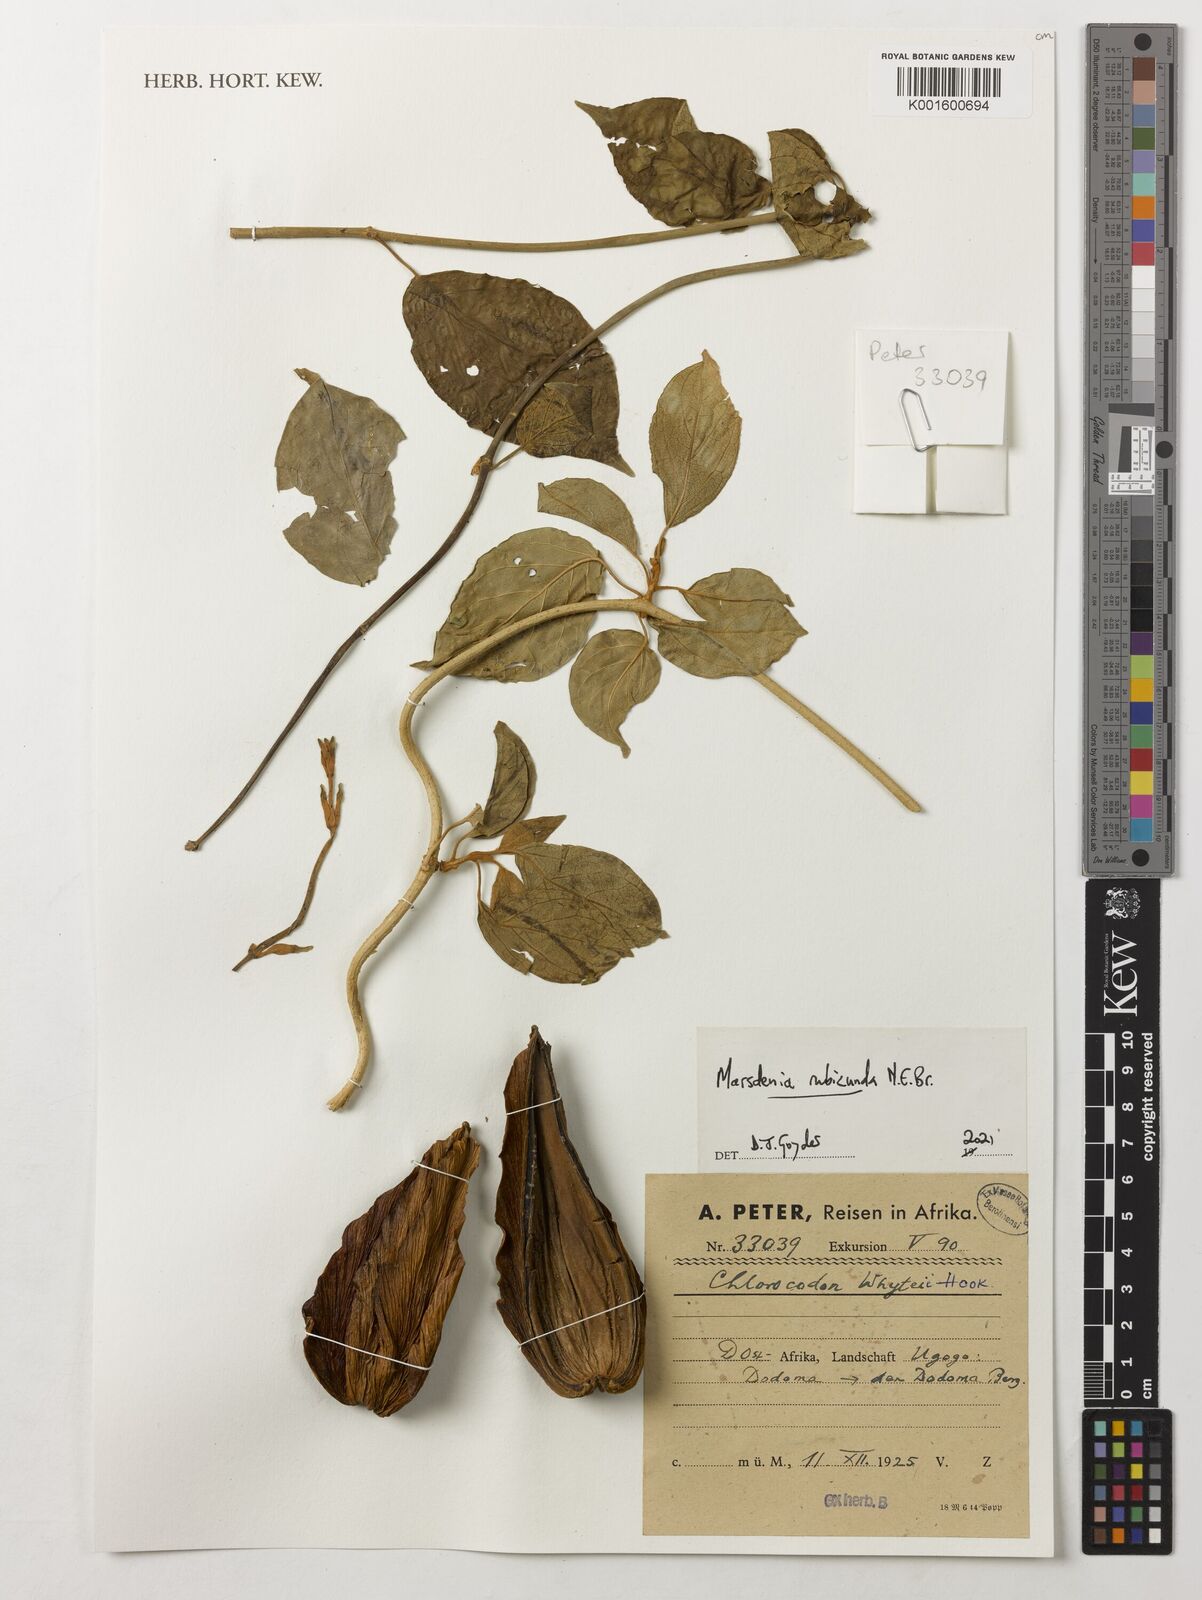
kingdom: Plantae
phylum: Tracheophyta
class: Magnoliopsida
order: Gentianales
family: Apocynaceae
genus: Mondia
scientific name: Mondia whitei
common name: Mondia
